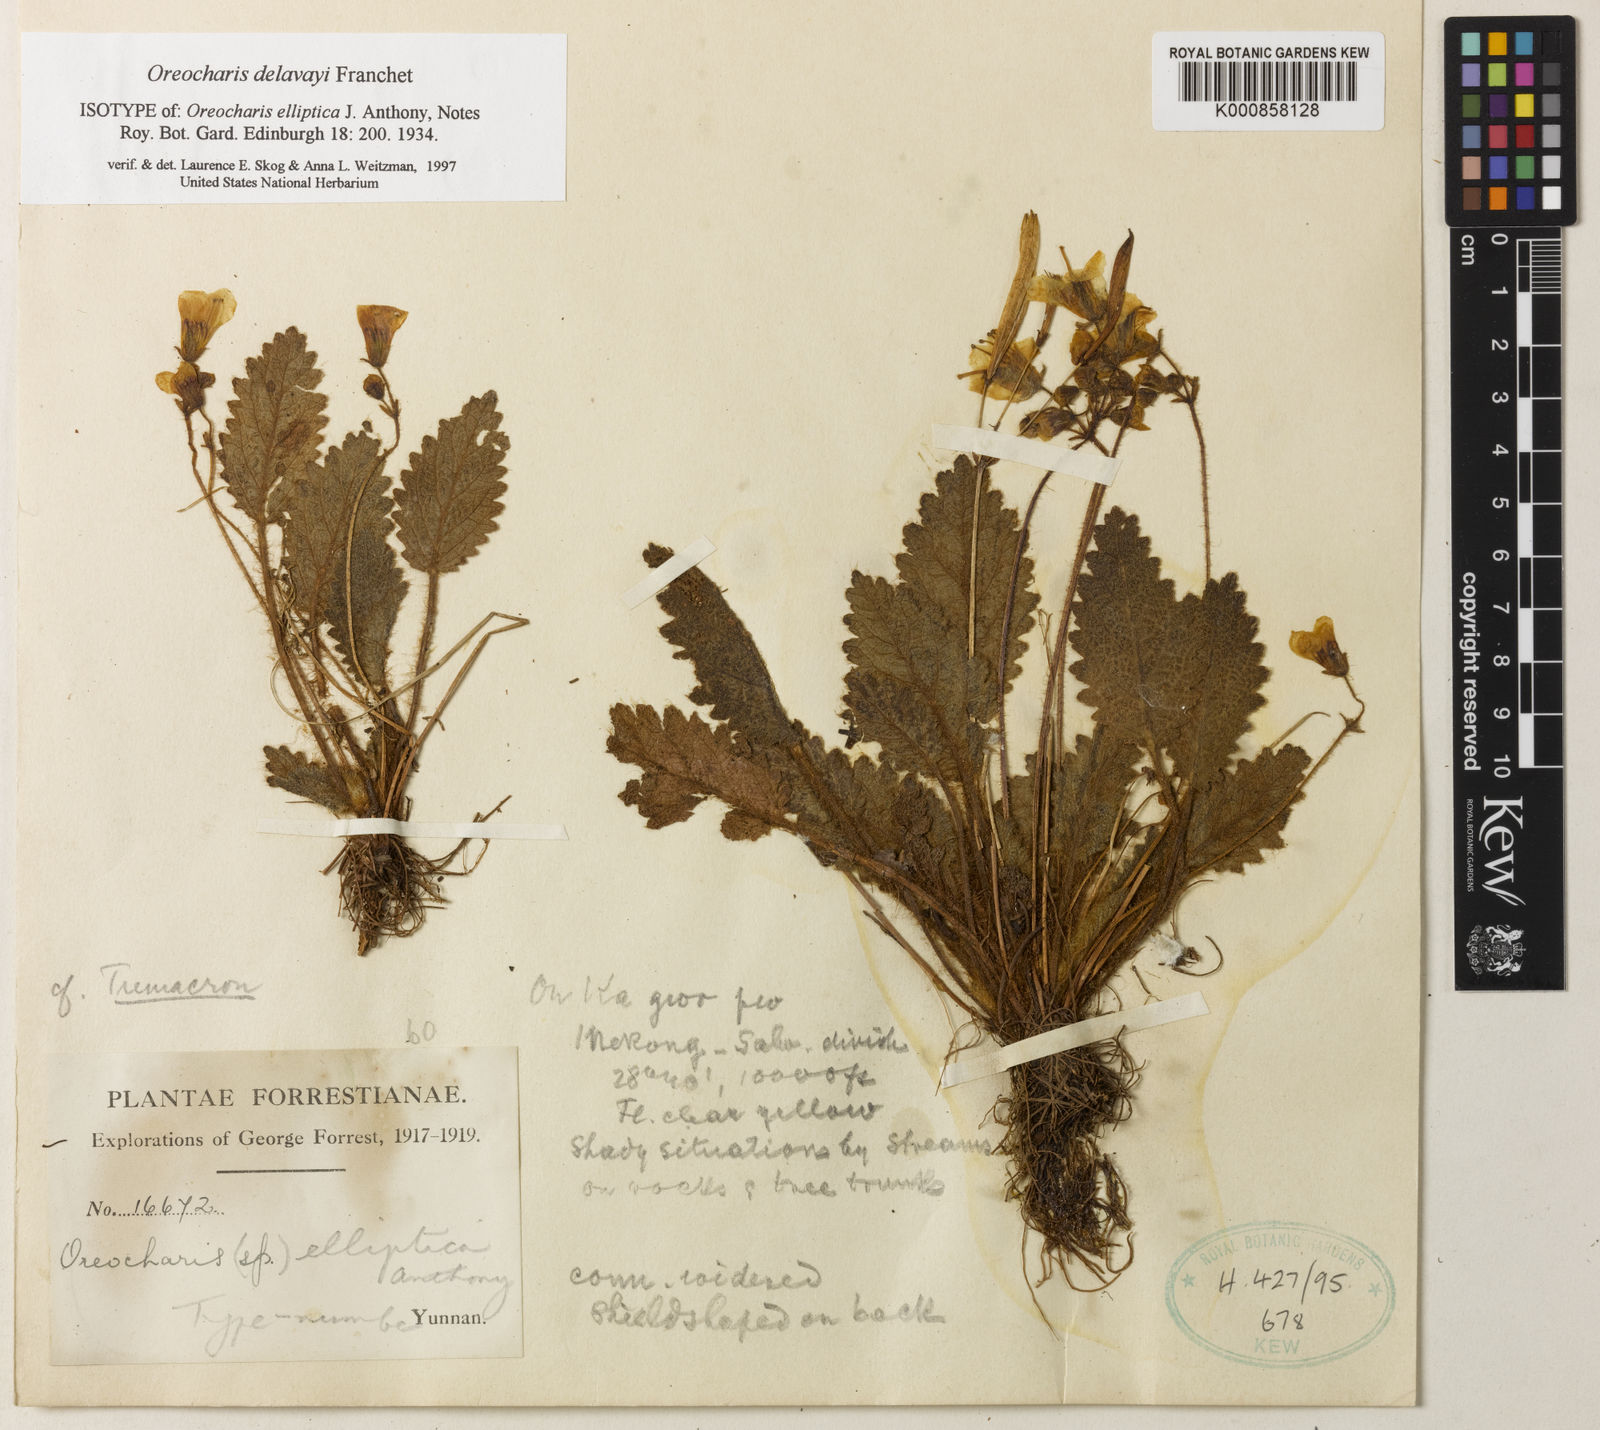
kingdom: Plantae
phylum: Tracheophyta
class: Magnoliopsida
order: Lamiales
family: Gesneriaceae
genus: Oreocharis
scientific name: Oreocharis
